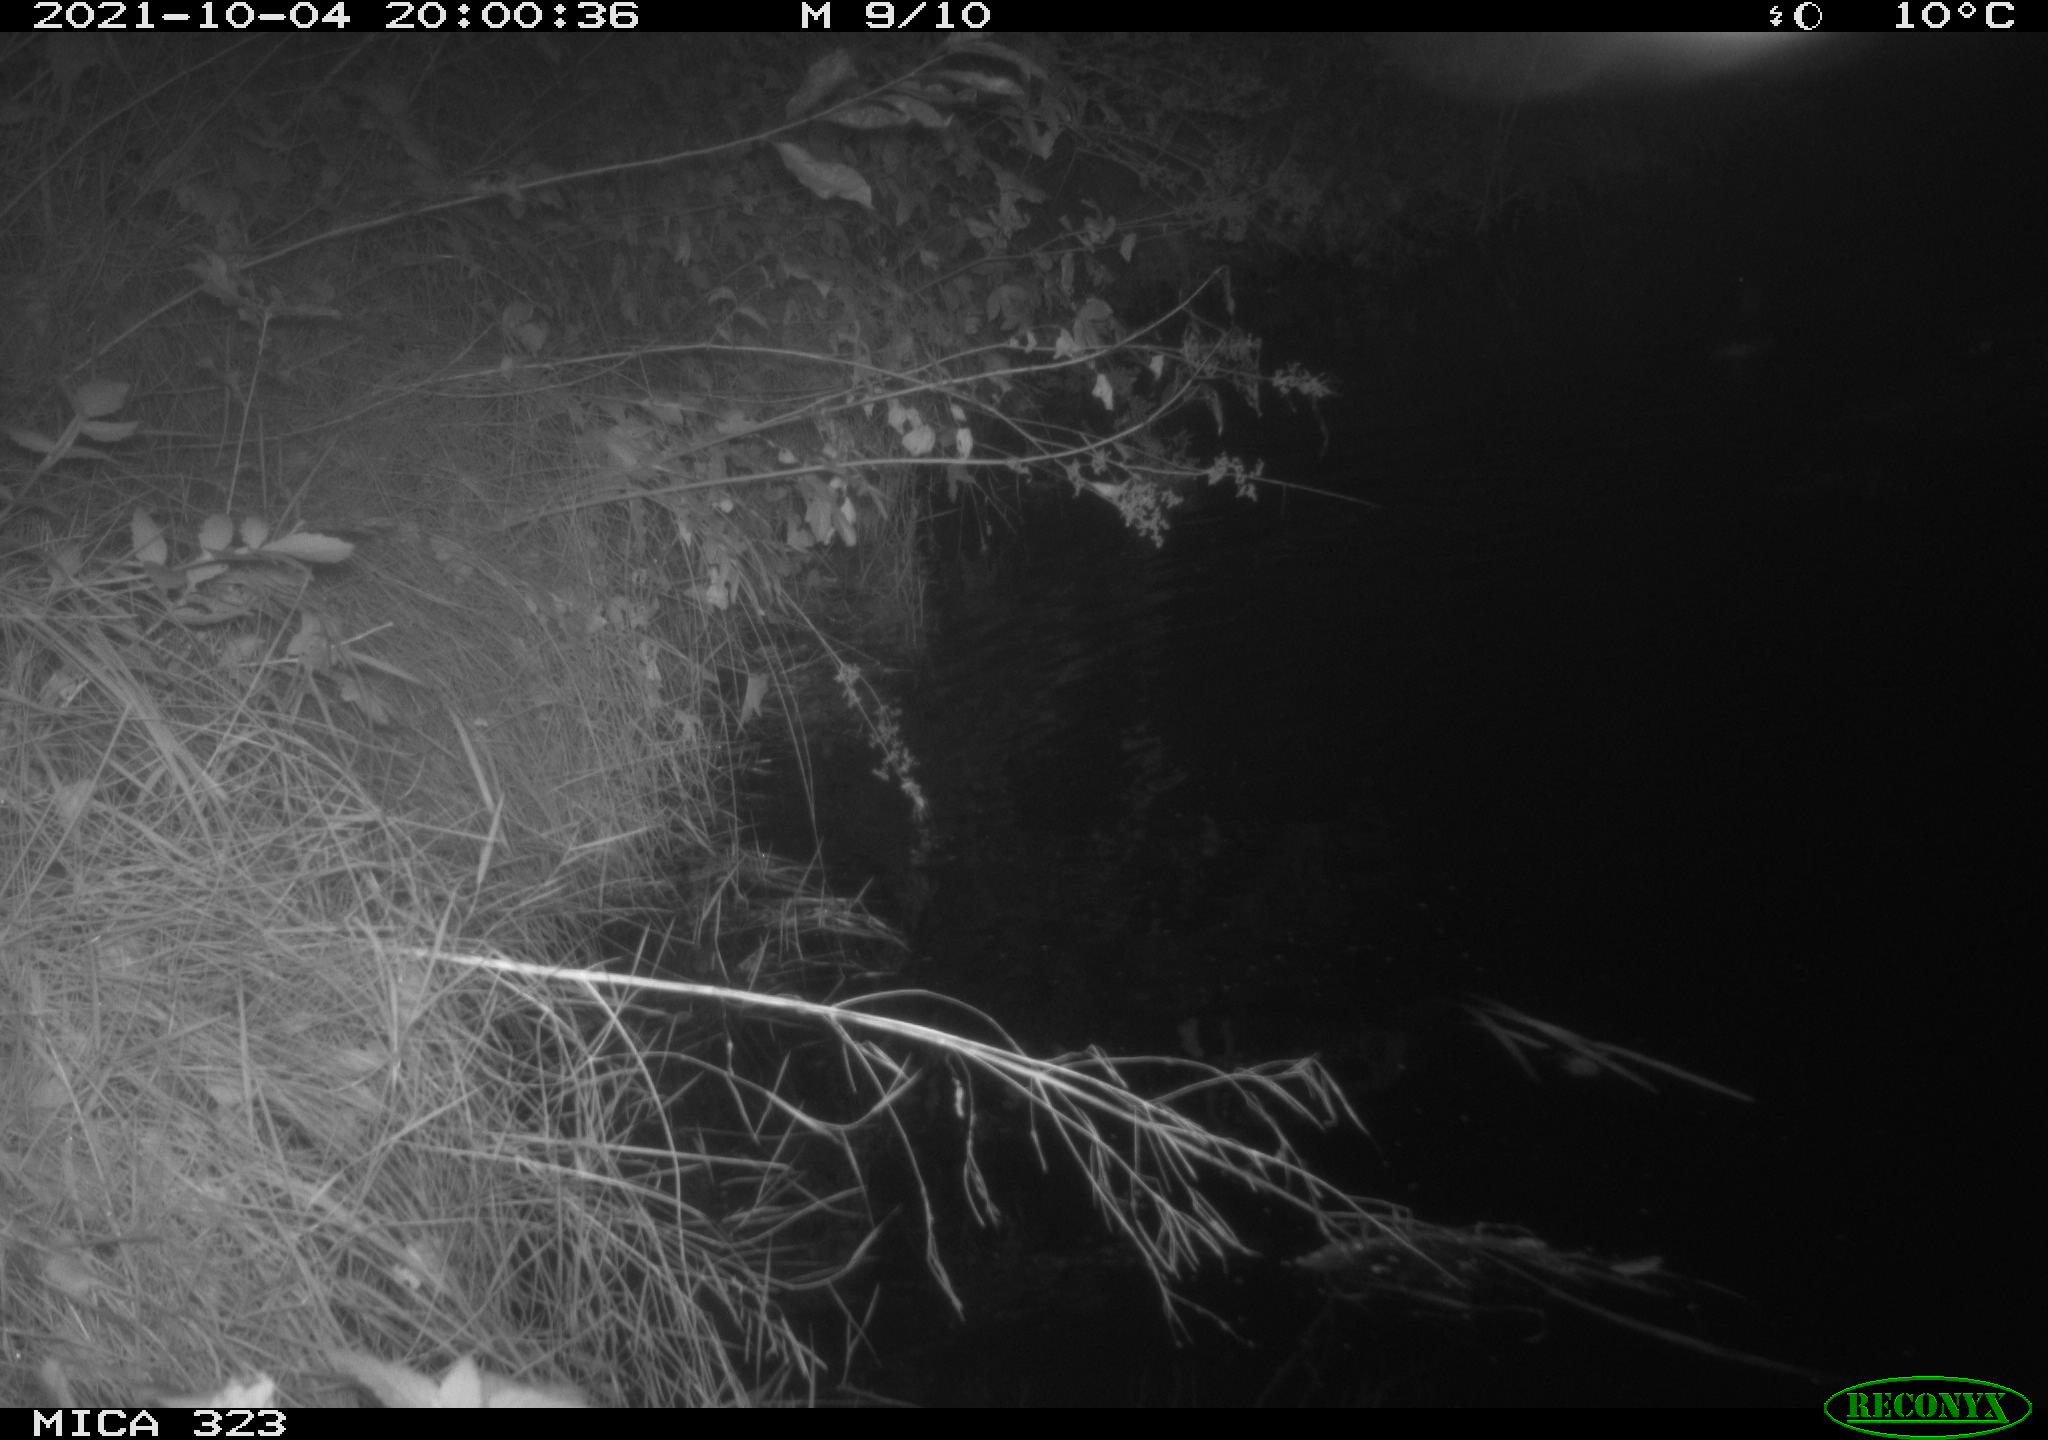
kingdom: Animalia
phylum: Chordata
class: Aves
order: Anseriformes
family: Anatidae
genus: Anas
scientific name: Anas
